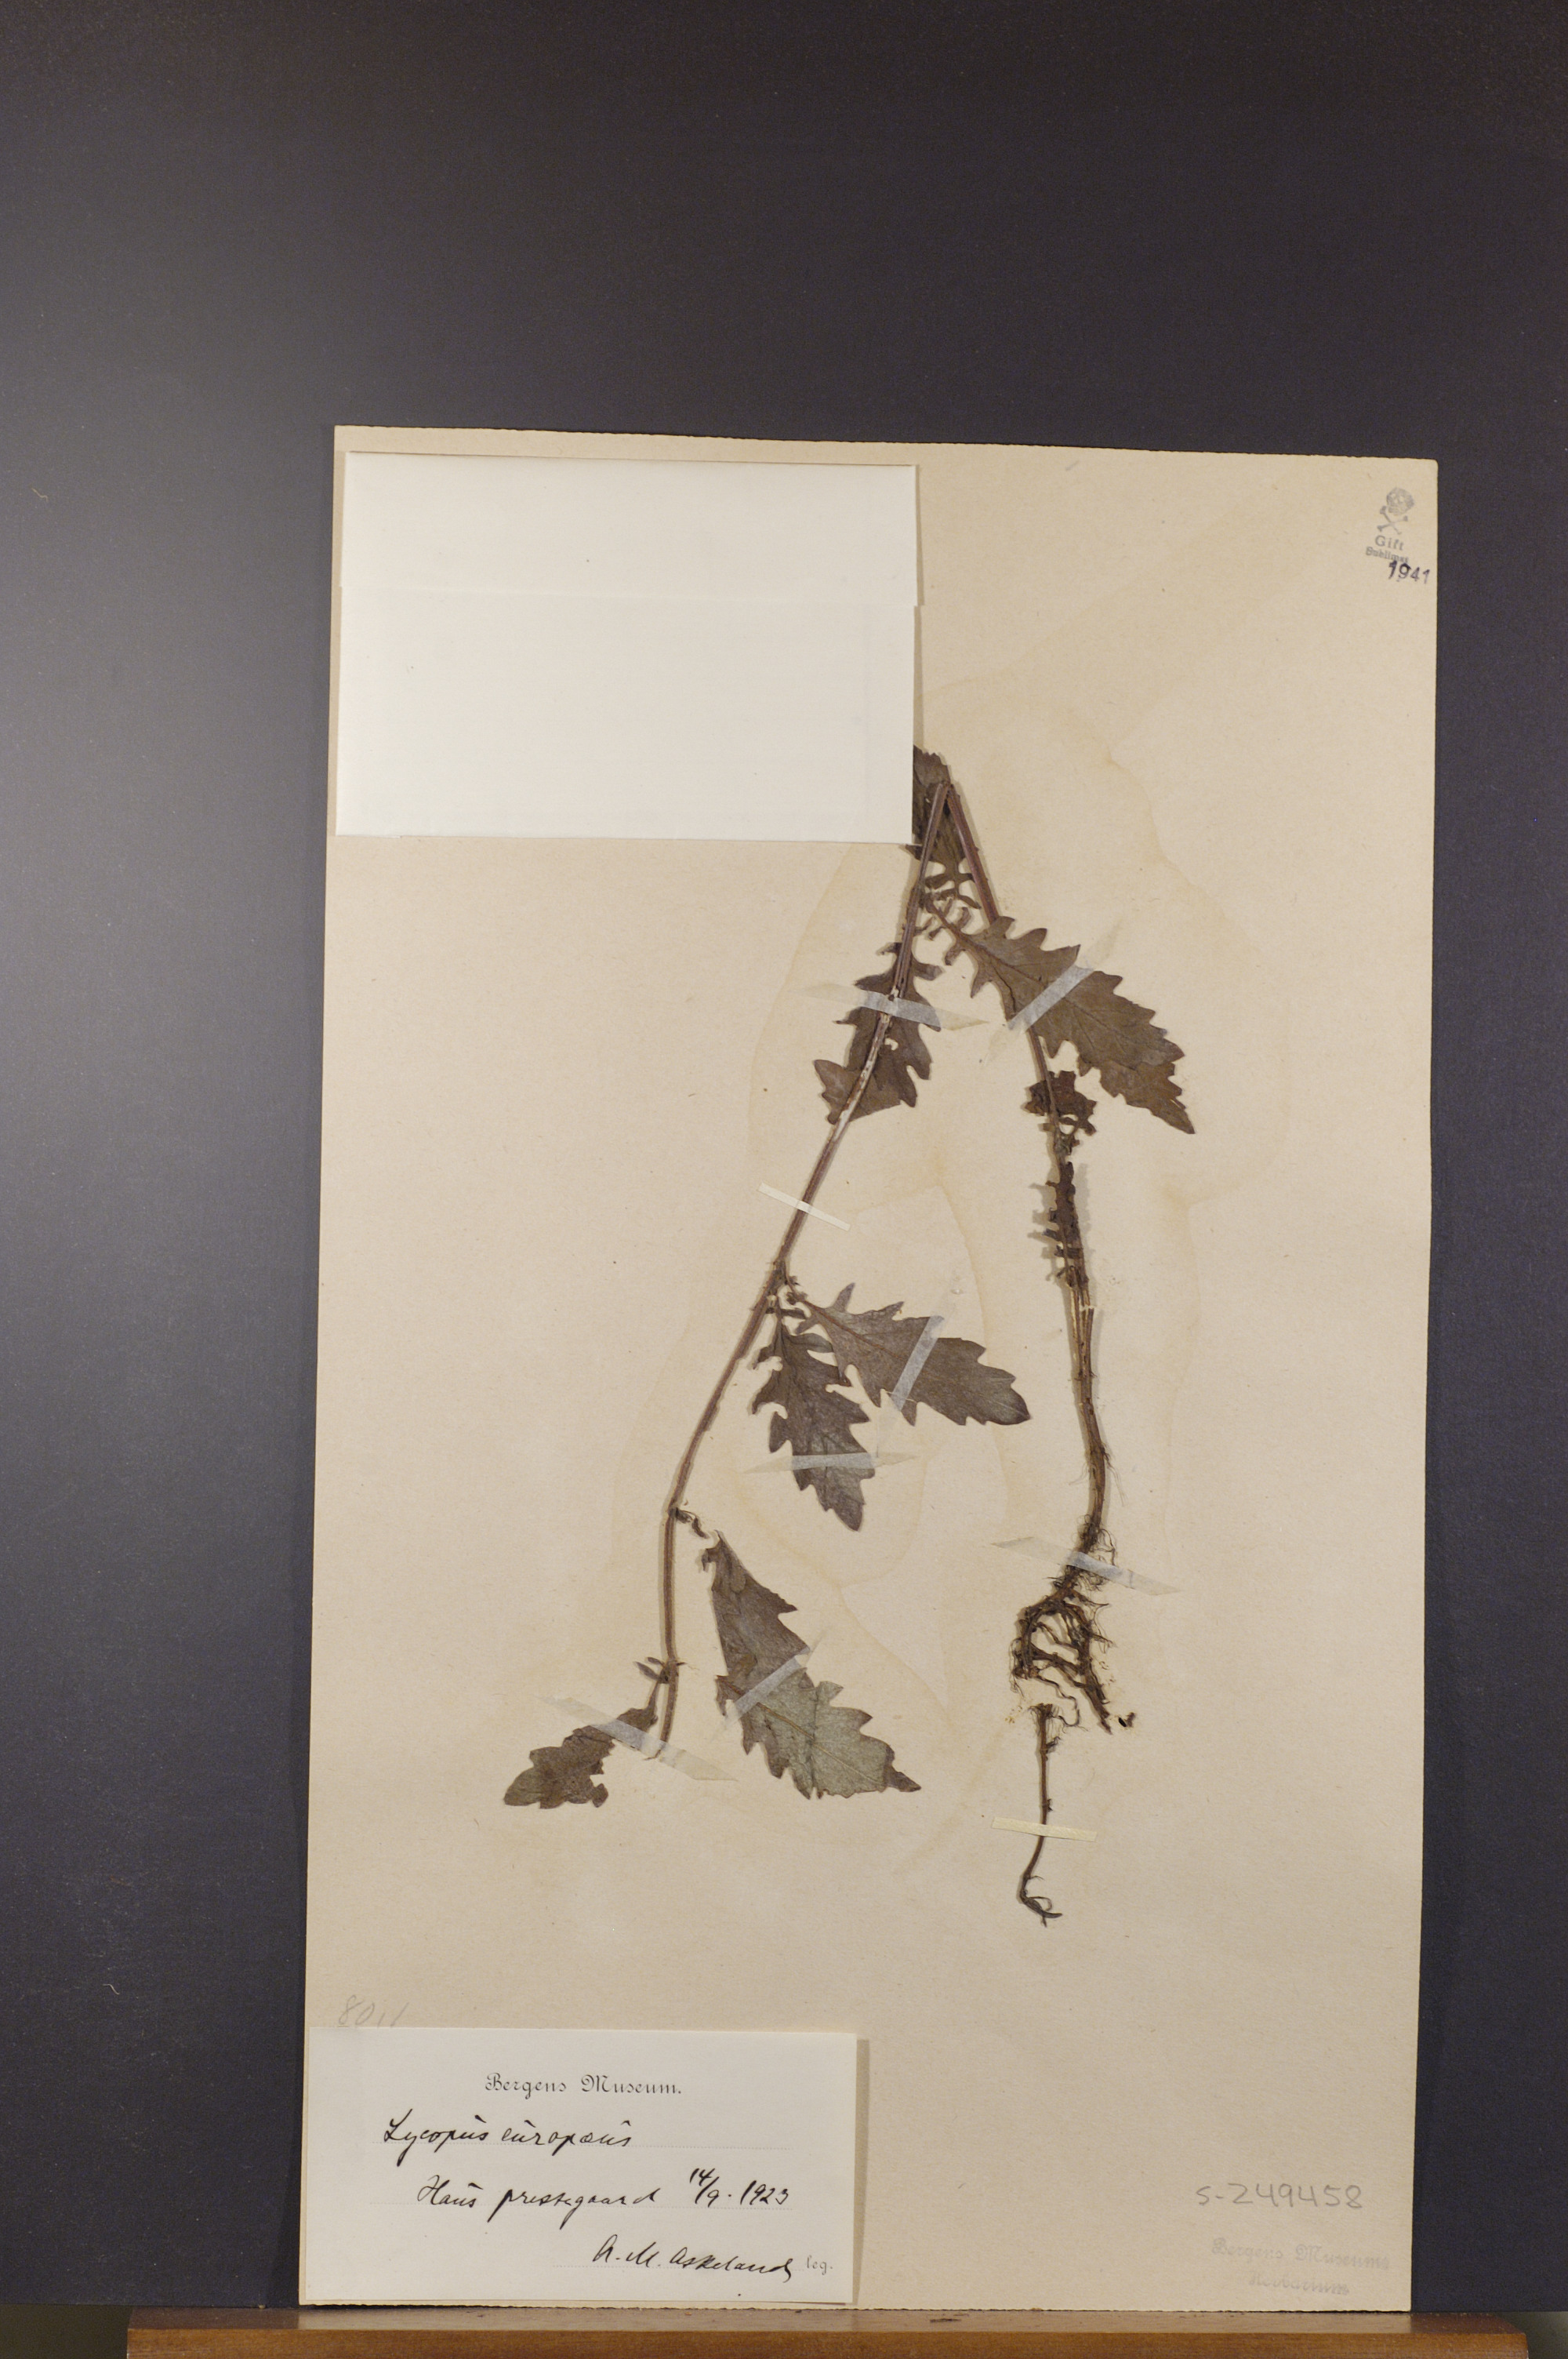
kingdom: Plantae
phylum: Tracheophyta
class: Magnoliopsida
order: Lamiales
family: Lamiaceae
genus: Lycopus
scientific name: Lycopus europaeus
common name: European bugleweed
